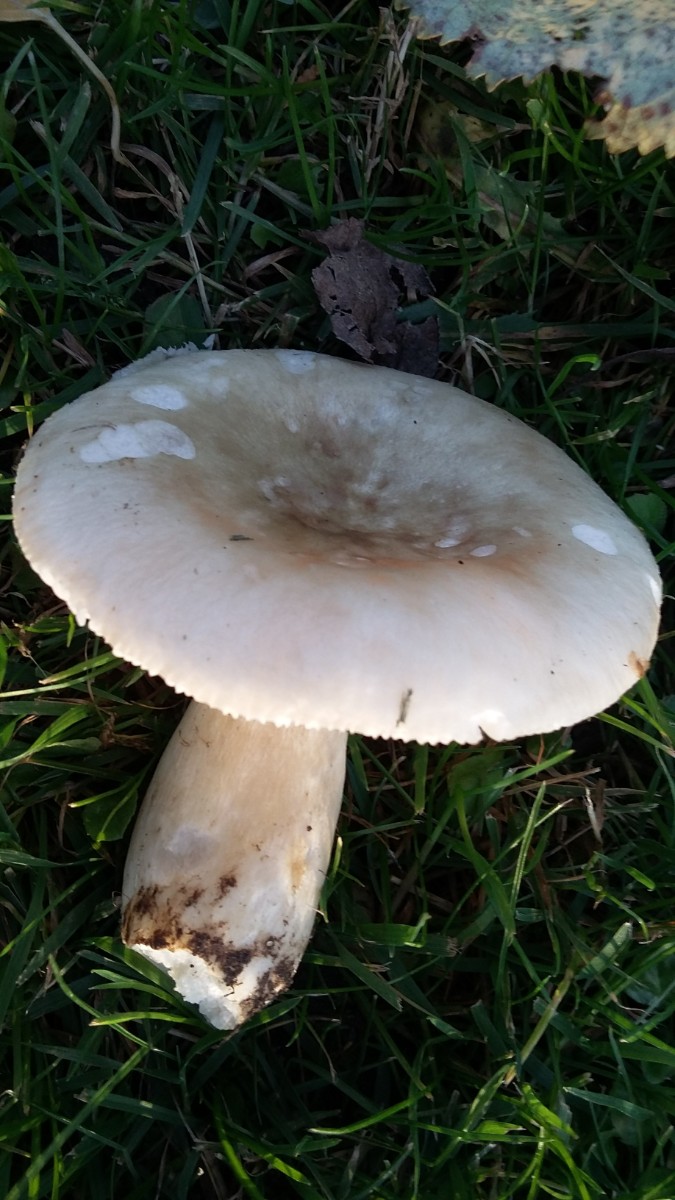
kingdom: Fungi
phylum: Basidiomycota
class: Agaricomycetes
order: Russulales
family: Russulaceae
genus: Lactarius
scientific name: Lactarius pubescens
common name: dunet mælkehat
